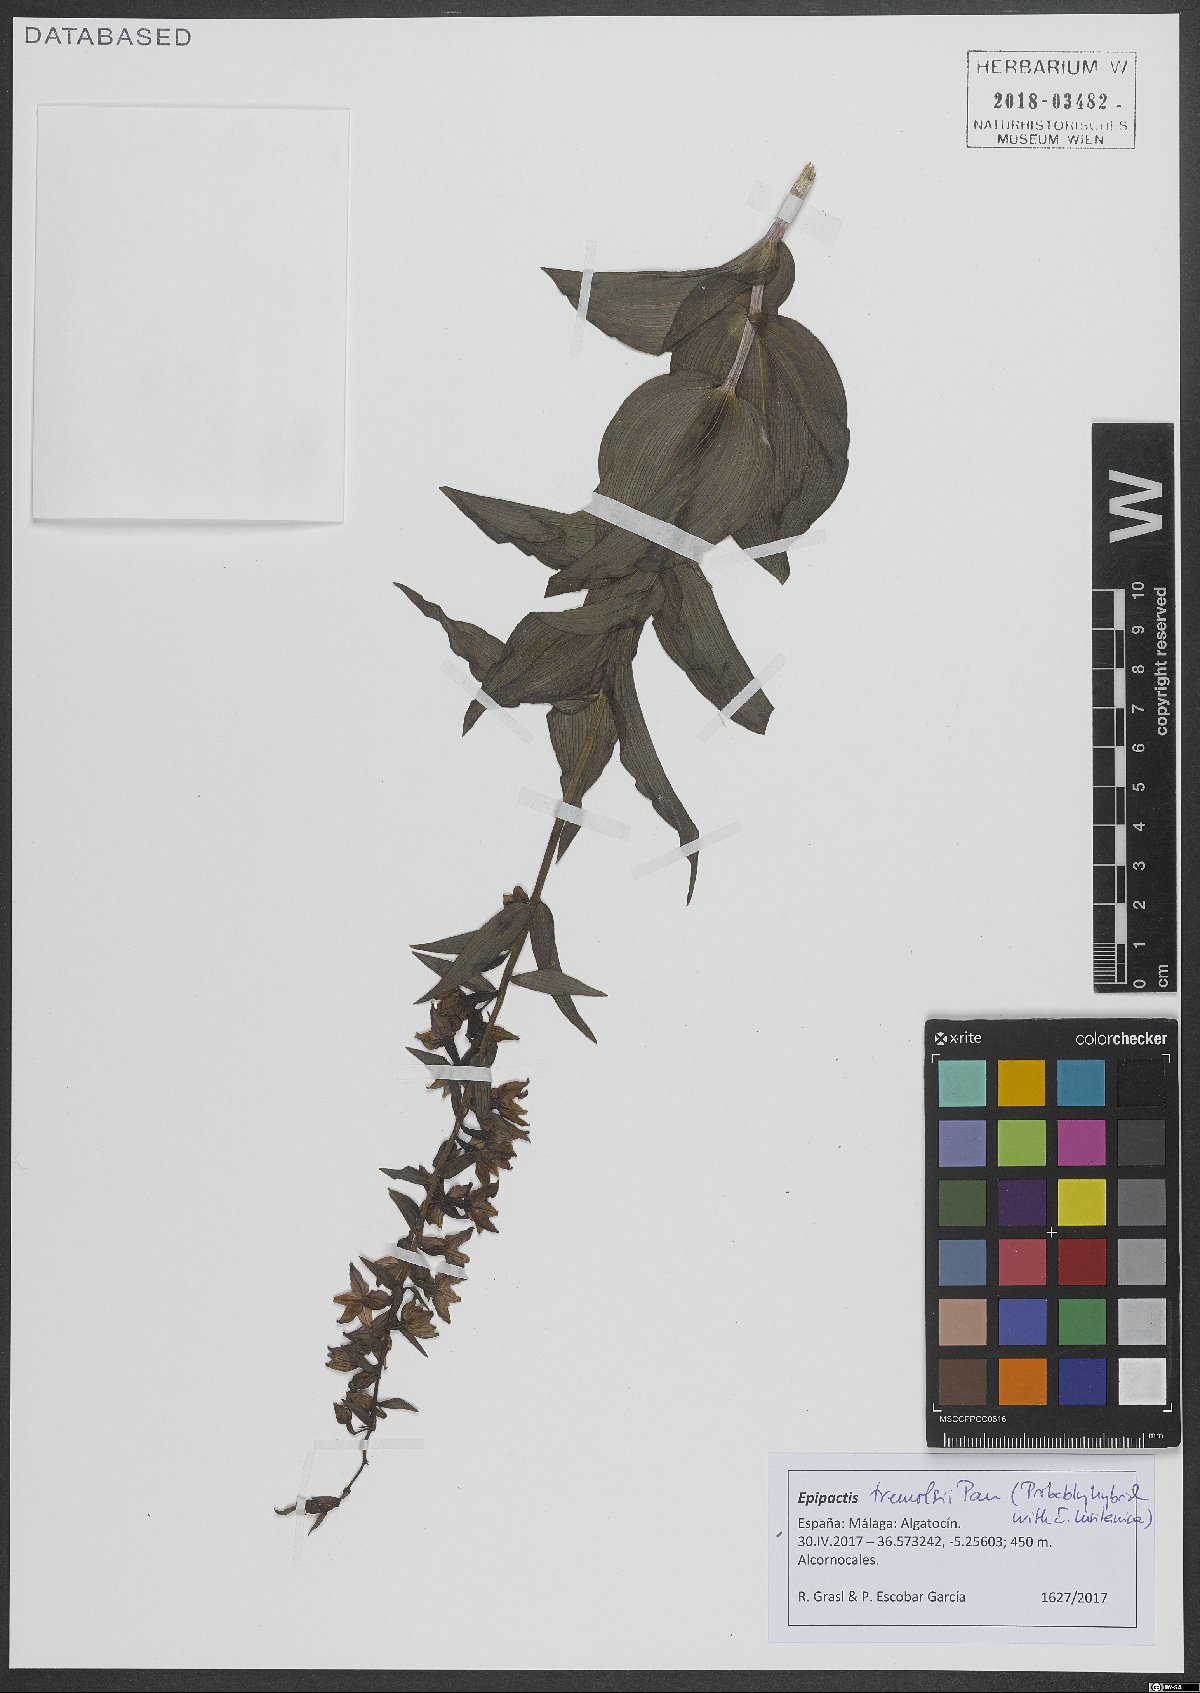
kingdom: Plantae
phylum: Tracheophyta
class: Liliopsida
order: Asparagales
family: Orchidaceae
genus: Epipactis
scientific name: Epipactis helleborine
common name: Broad-leaved helleborine
